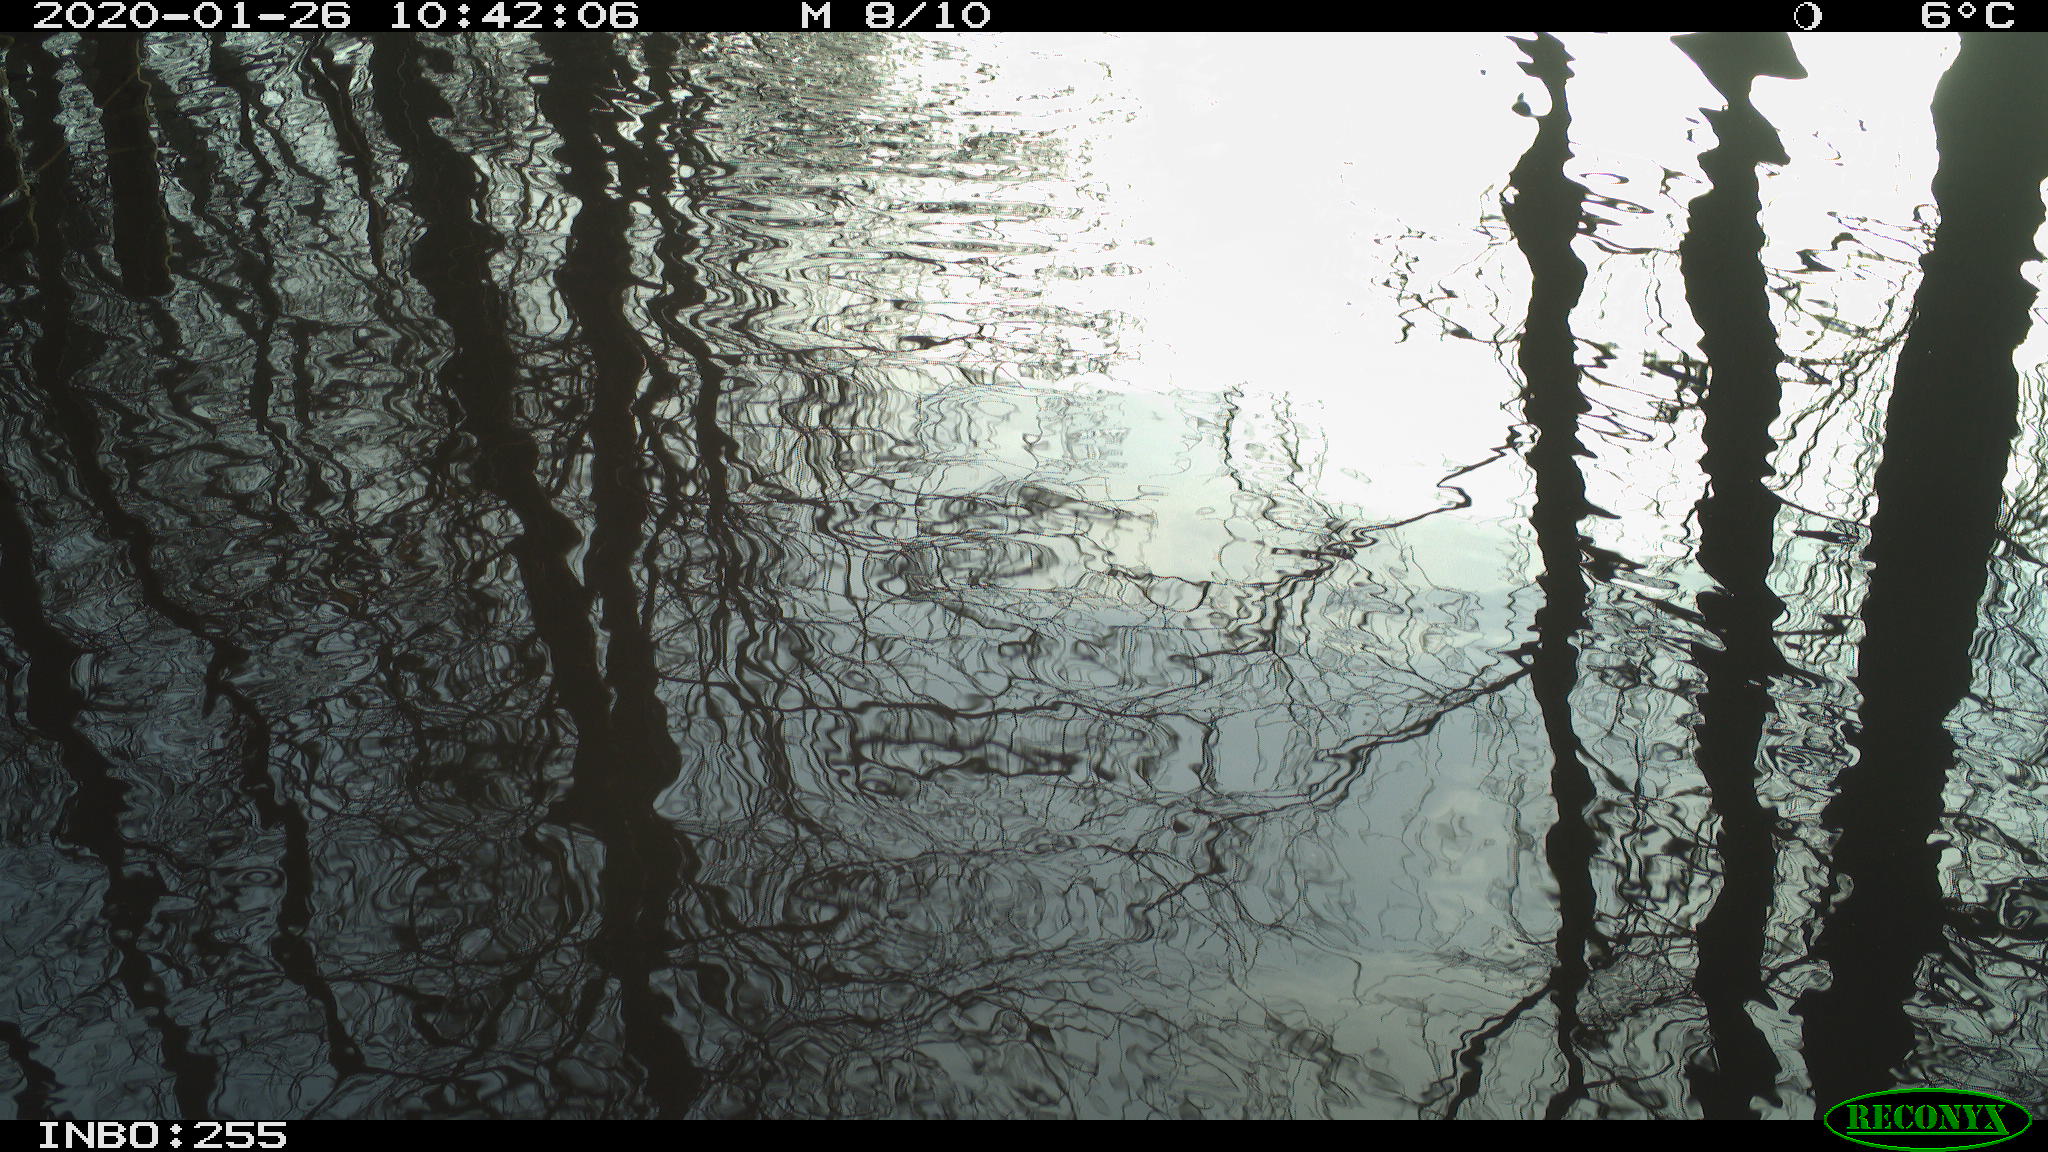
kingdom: Animalia
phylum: Chordata
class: Aves
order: Gruiformes
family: Rallidae
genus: Gallinula
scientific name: Gallinula chloropus
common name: Common moorhen
